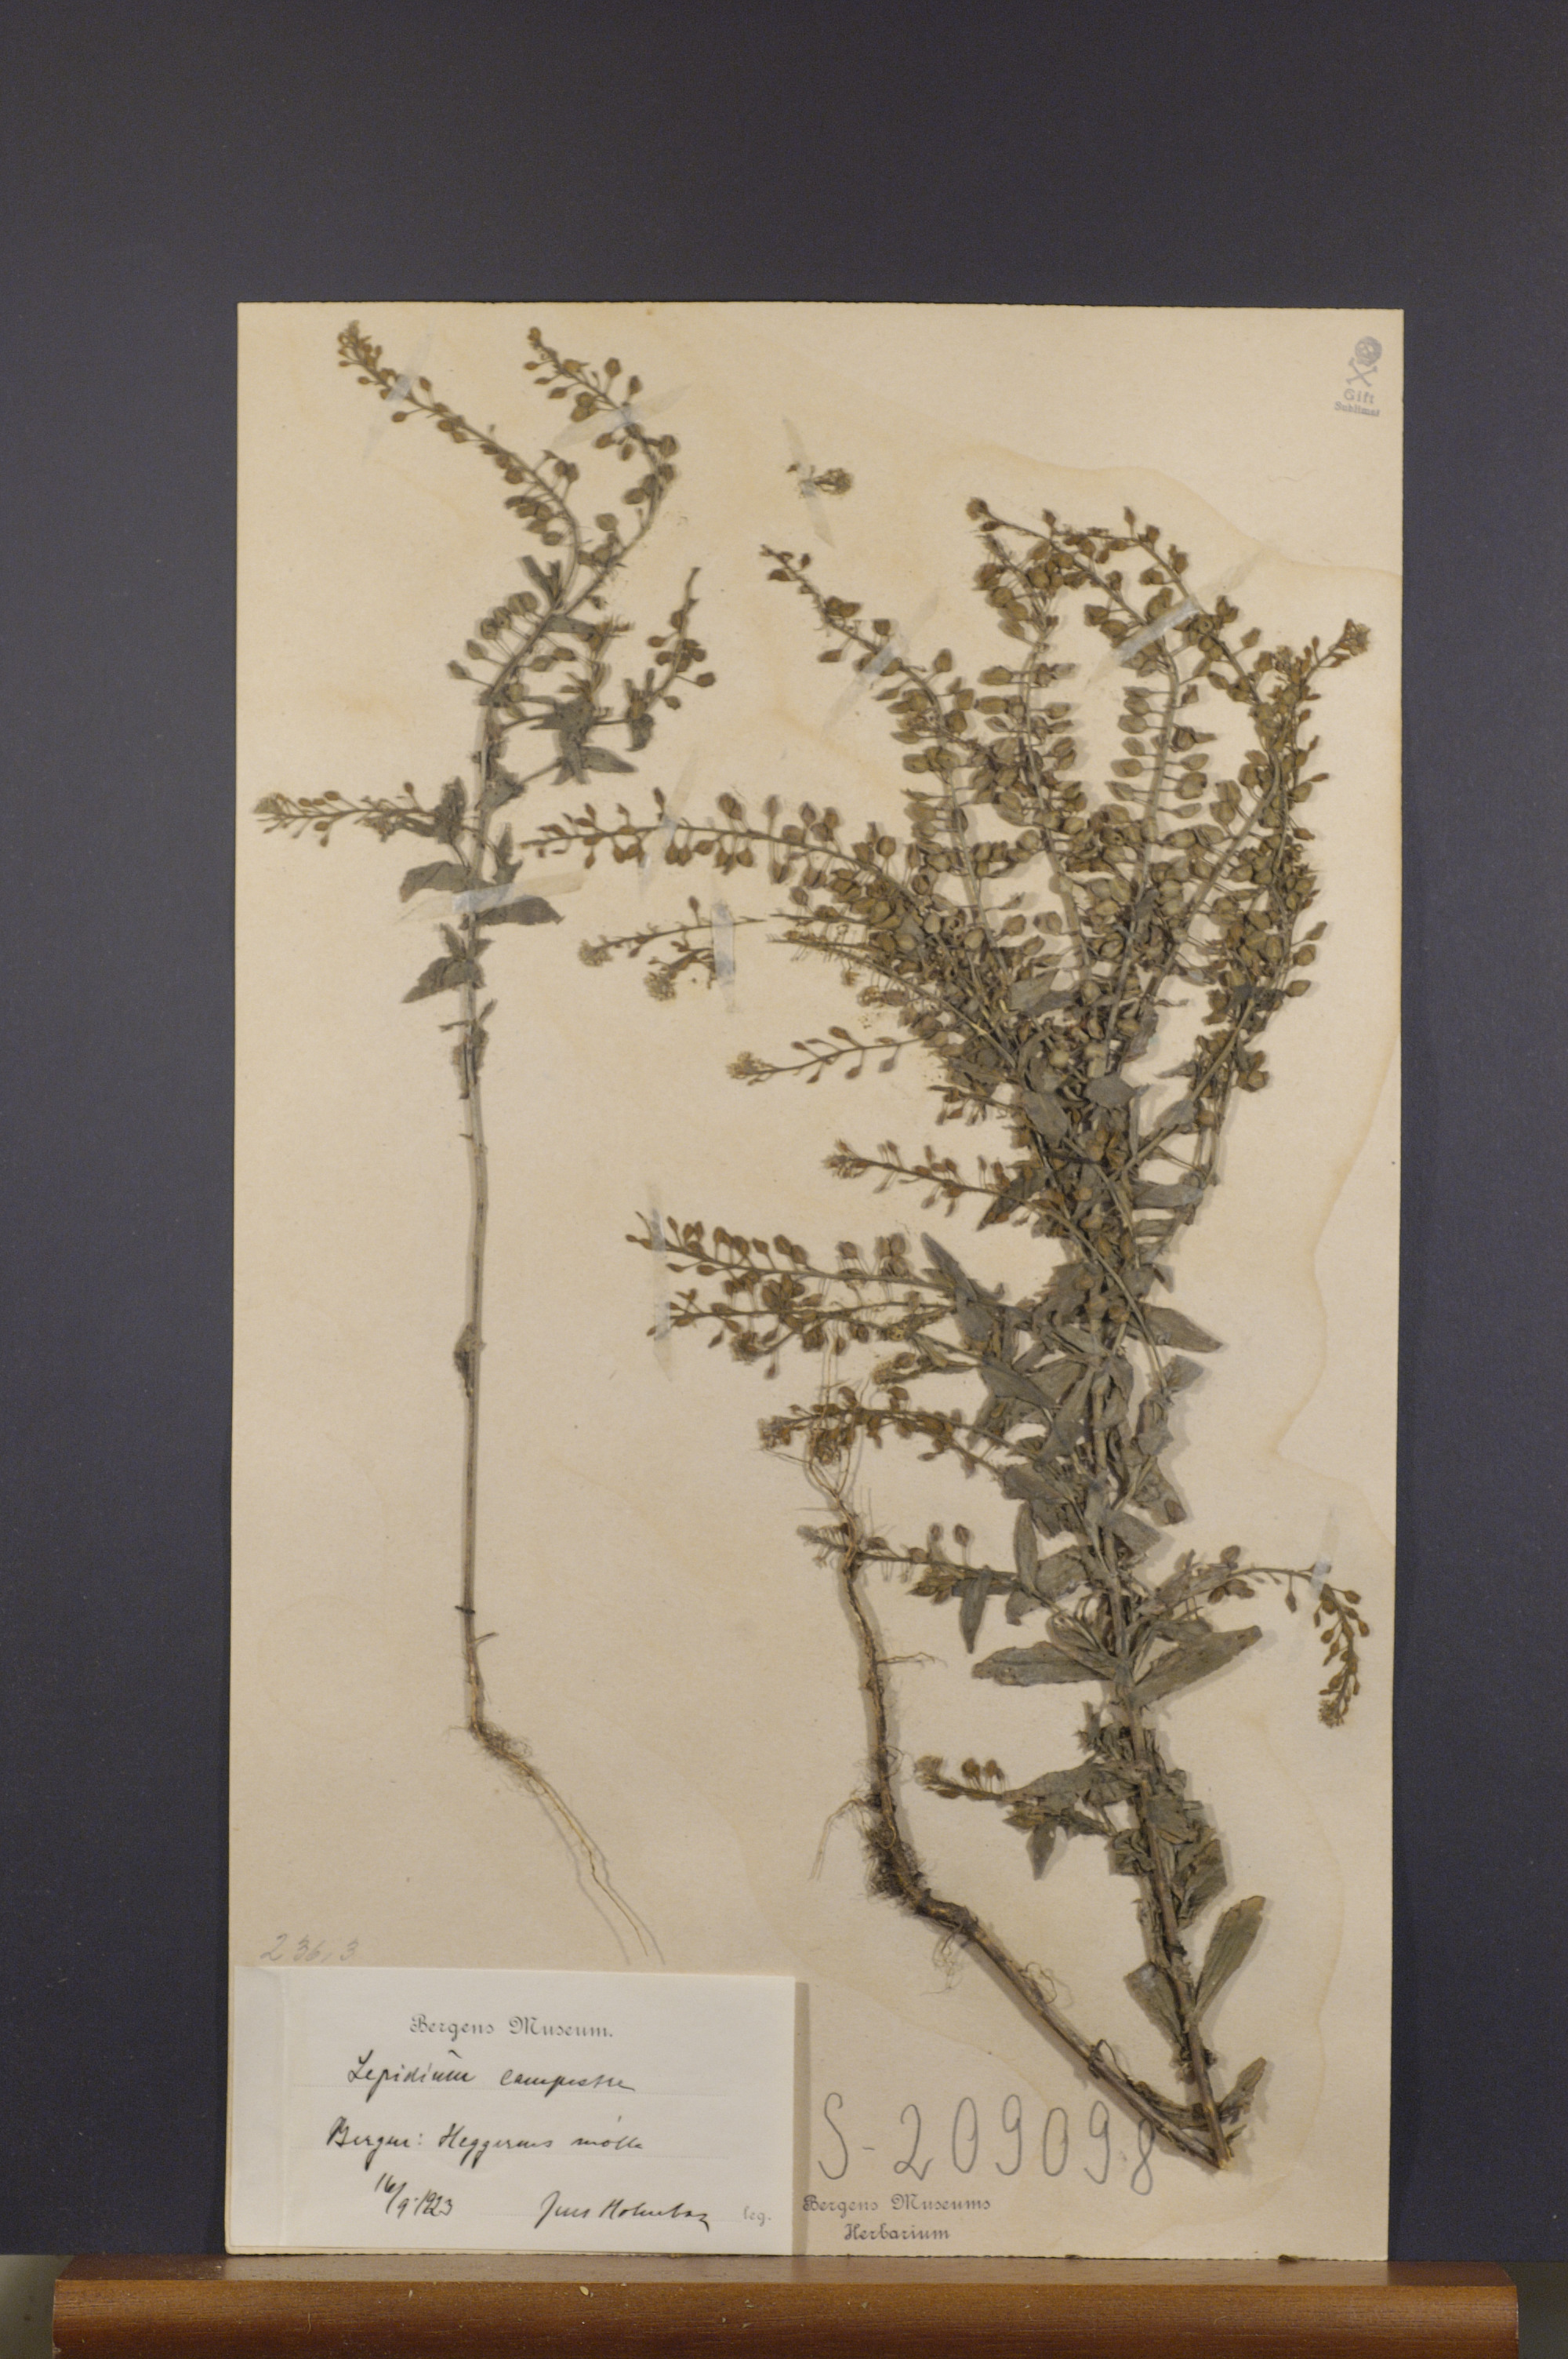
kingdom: Plantae
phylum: Tracheophyta
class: Magnoliopsida
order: Brassicales
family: Brassicaceae
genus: Lepidium
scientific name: Lepidium campestre
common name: Field pepperwort
